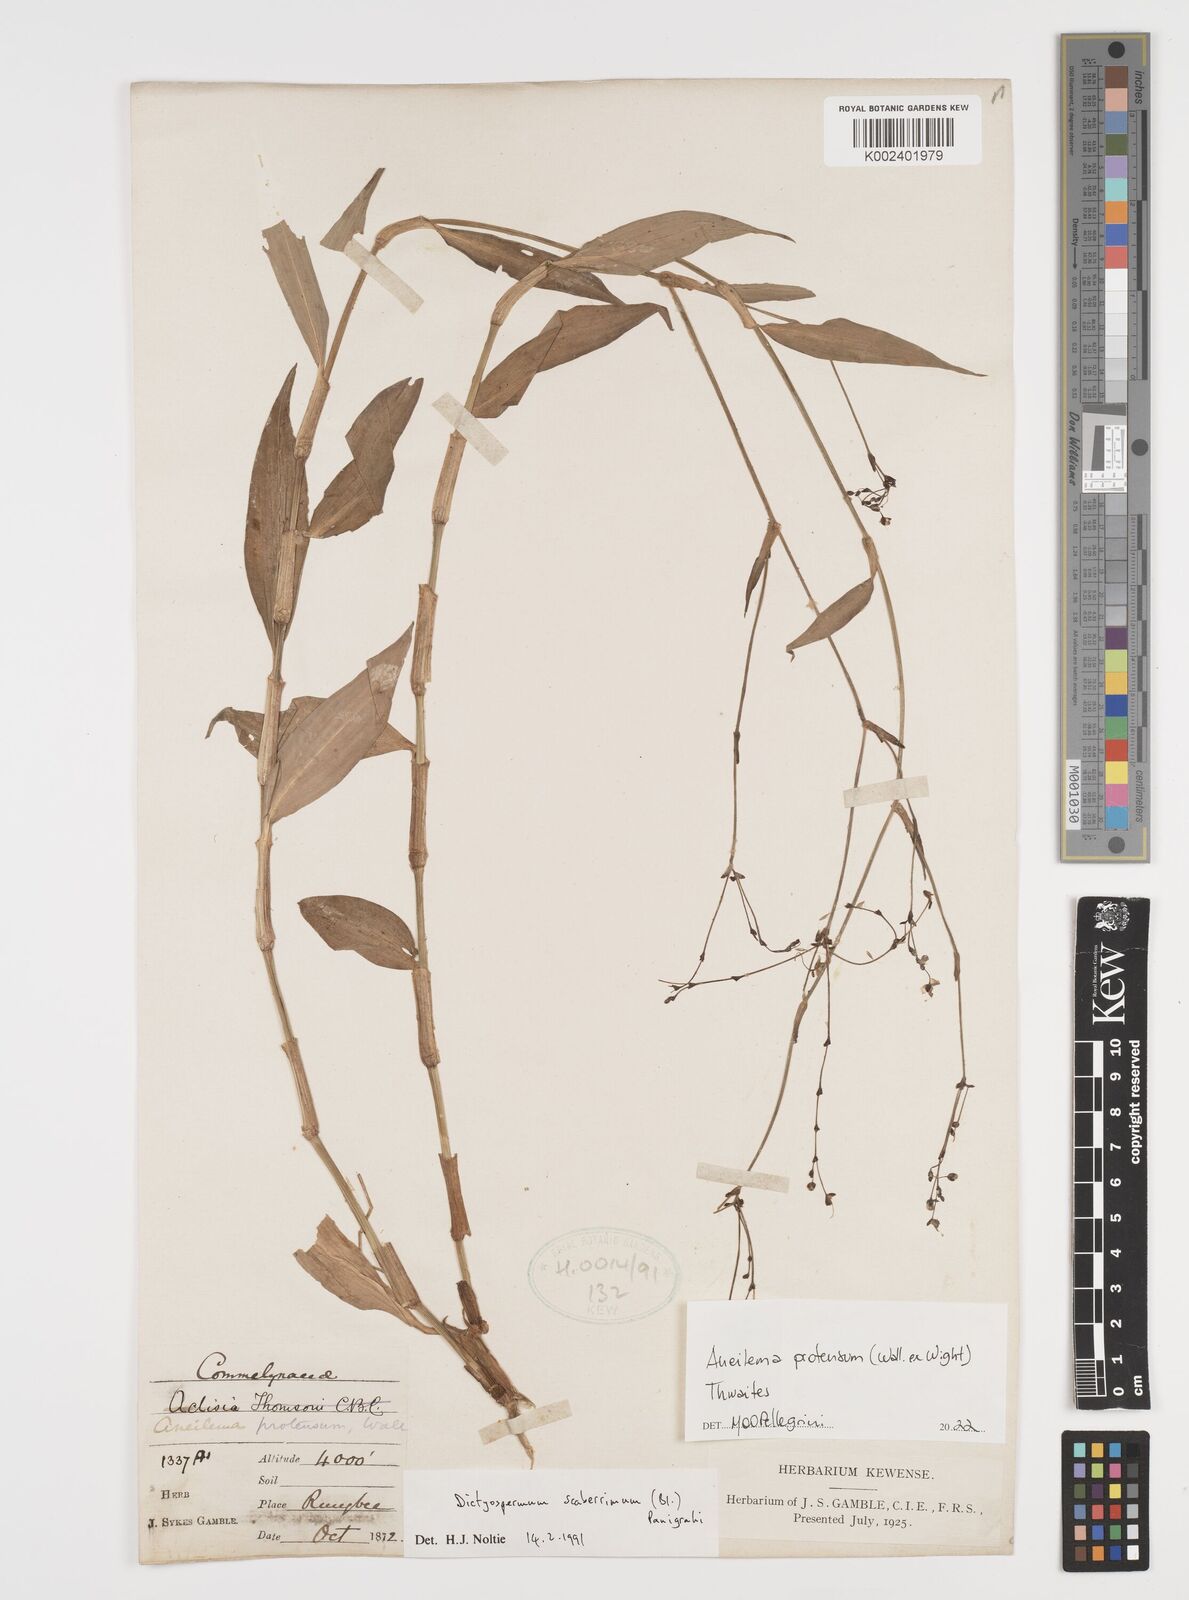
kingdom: Plantae
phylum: Tracheophyta
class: Liliopsida
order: Commelinales
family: Commelinaceae
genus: Rhopalephora
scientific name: Rhopalephora
